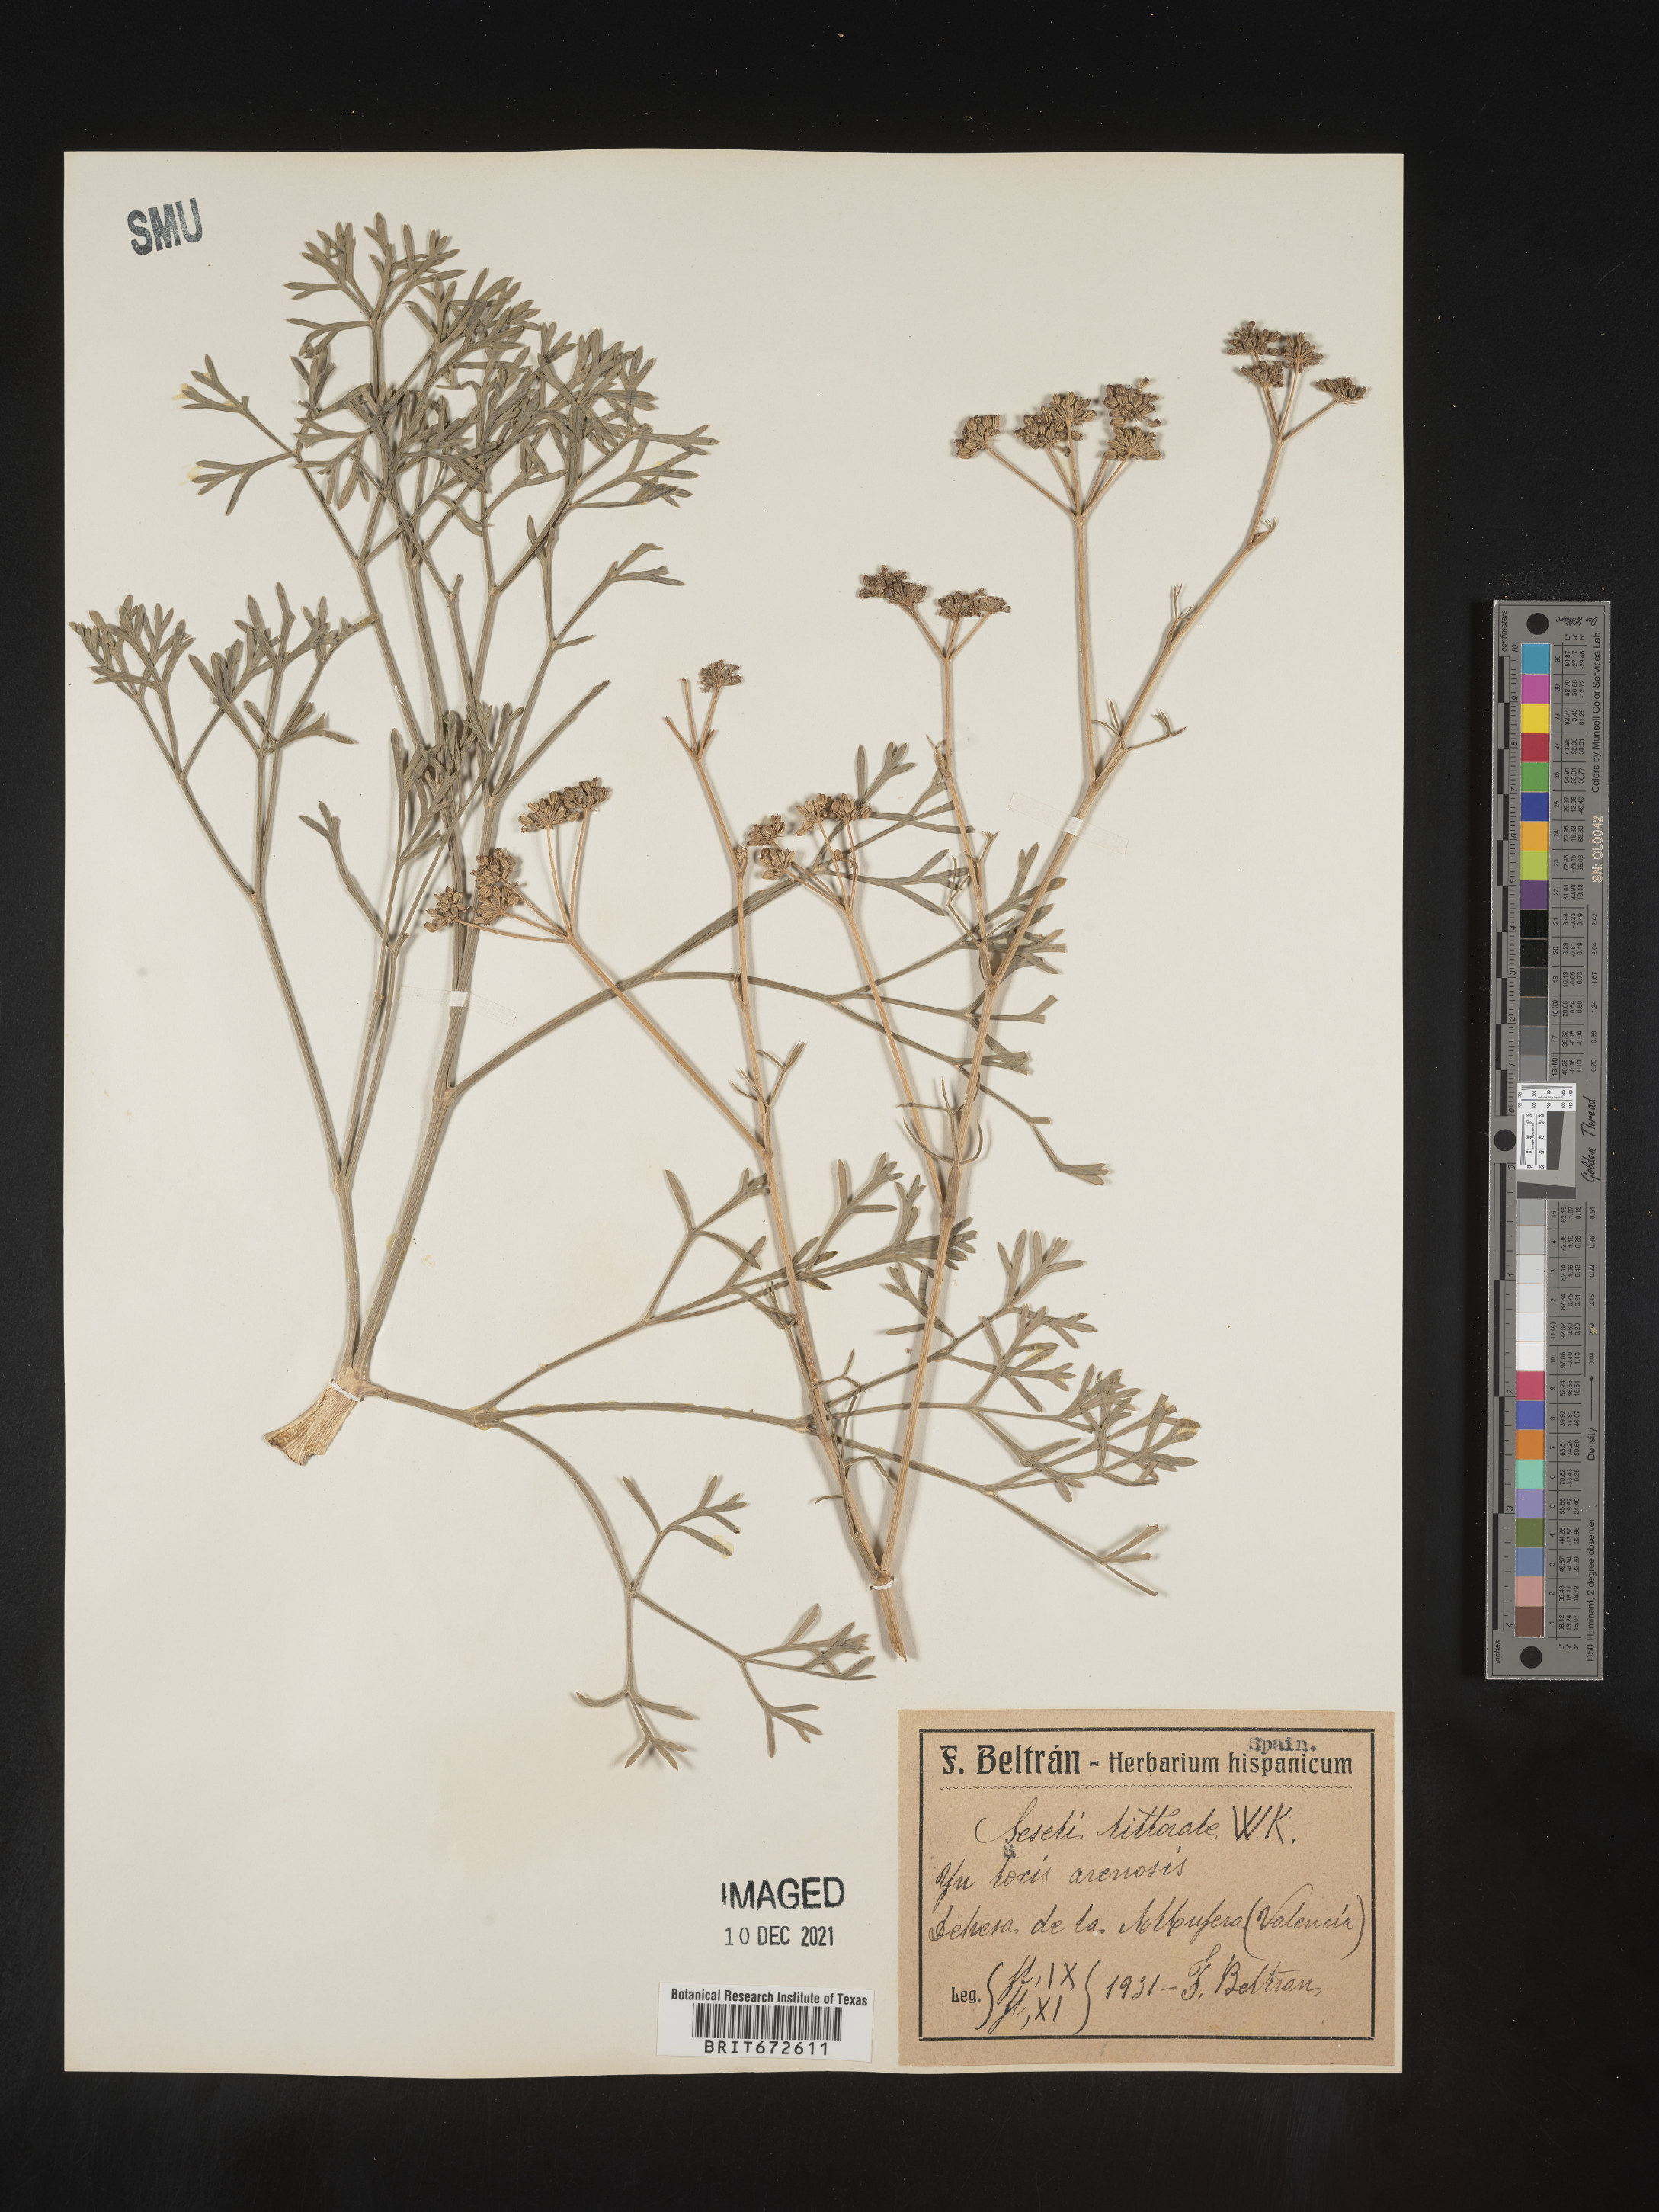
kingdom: Plantae
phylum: Tracheophyta
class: Magnoliopsida
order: Apiales
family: Apiaceae
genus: Seseli
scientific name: Seseli
